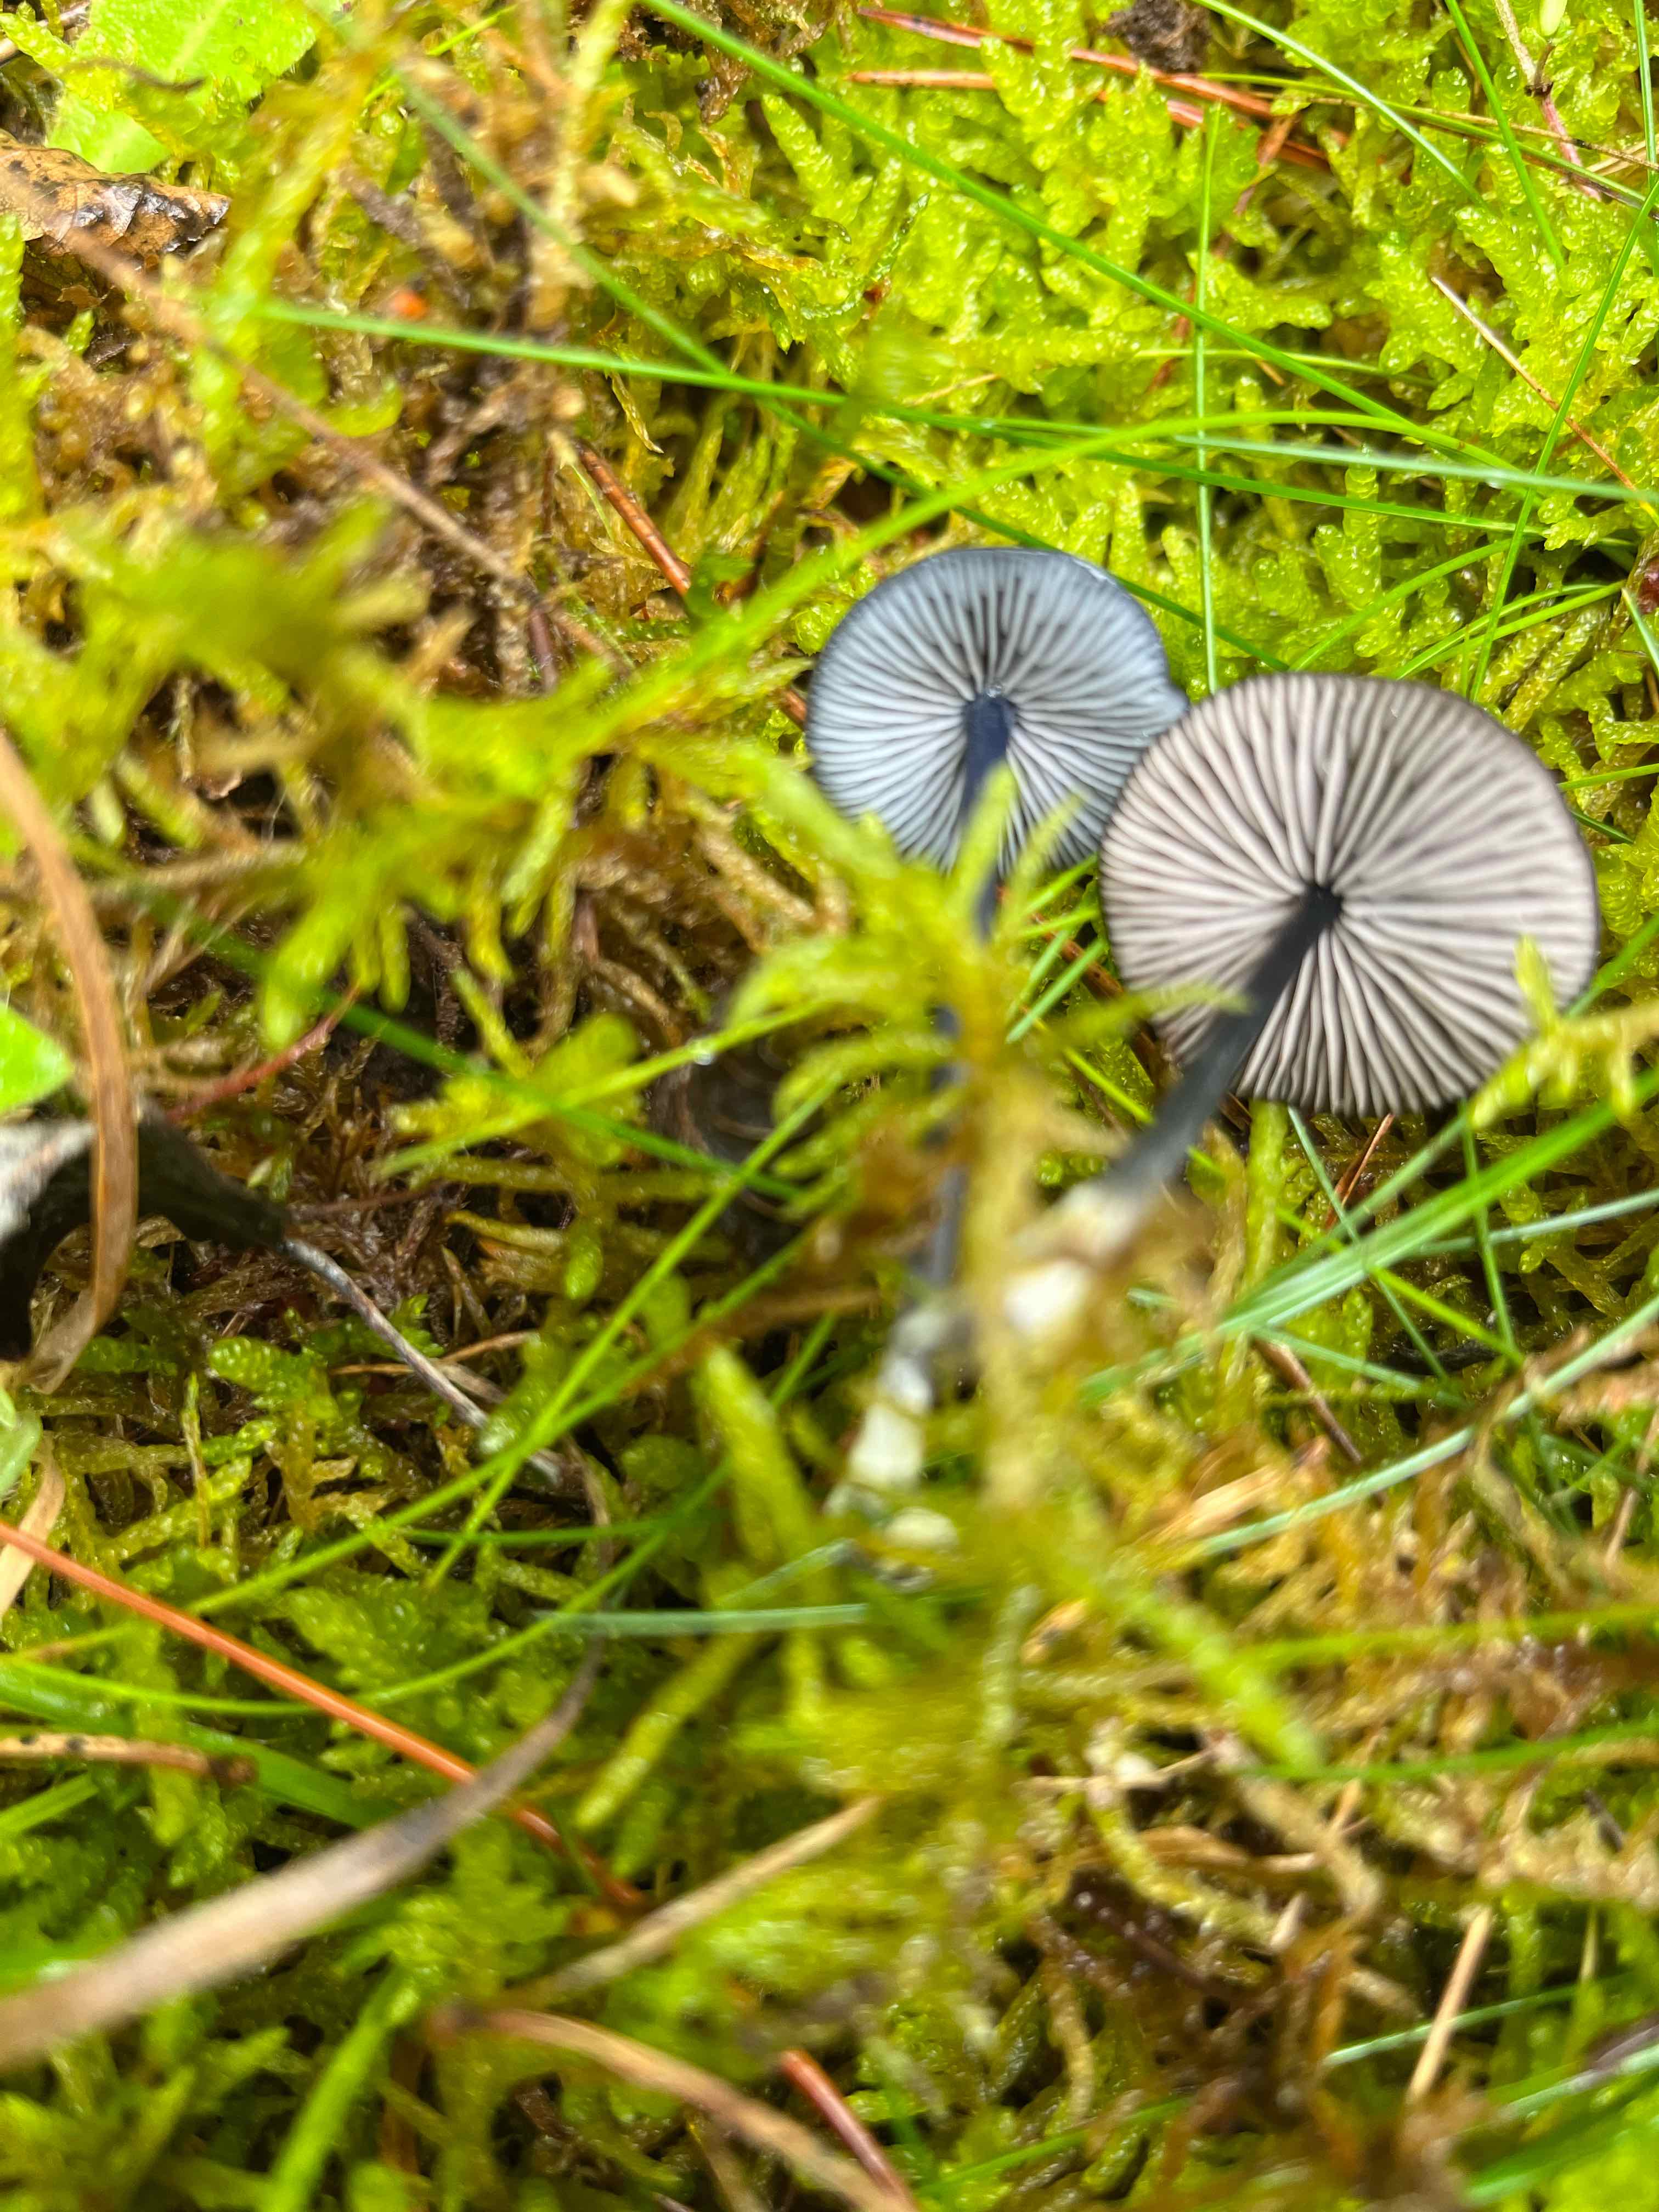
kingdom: Fungi
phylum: Basidiomycota
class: Agaricomycetes
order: Agaricales
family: Entolomataceae
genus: Entoloma
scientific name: Entoloma
